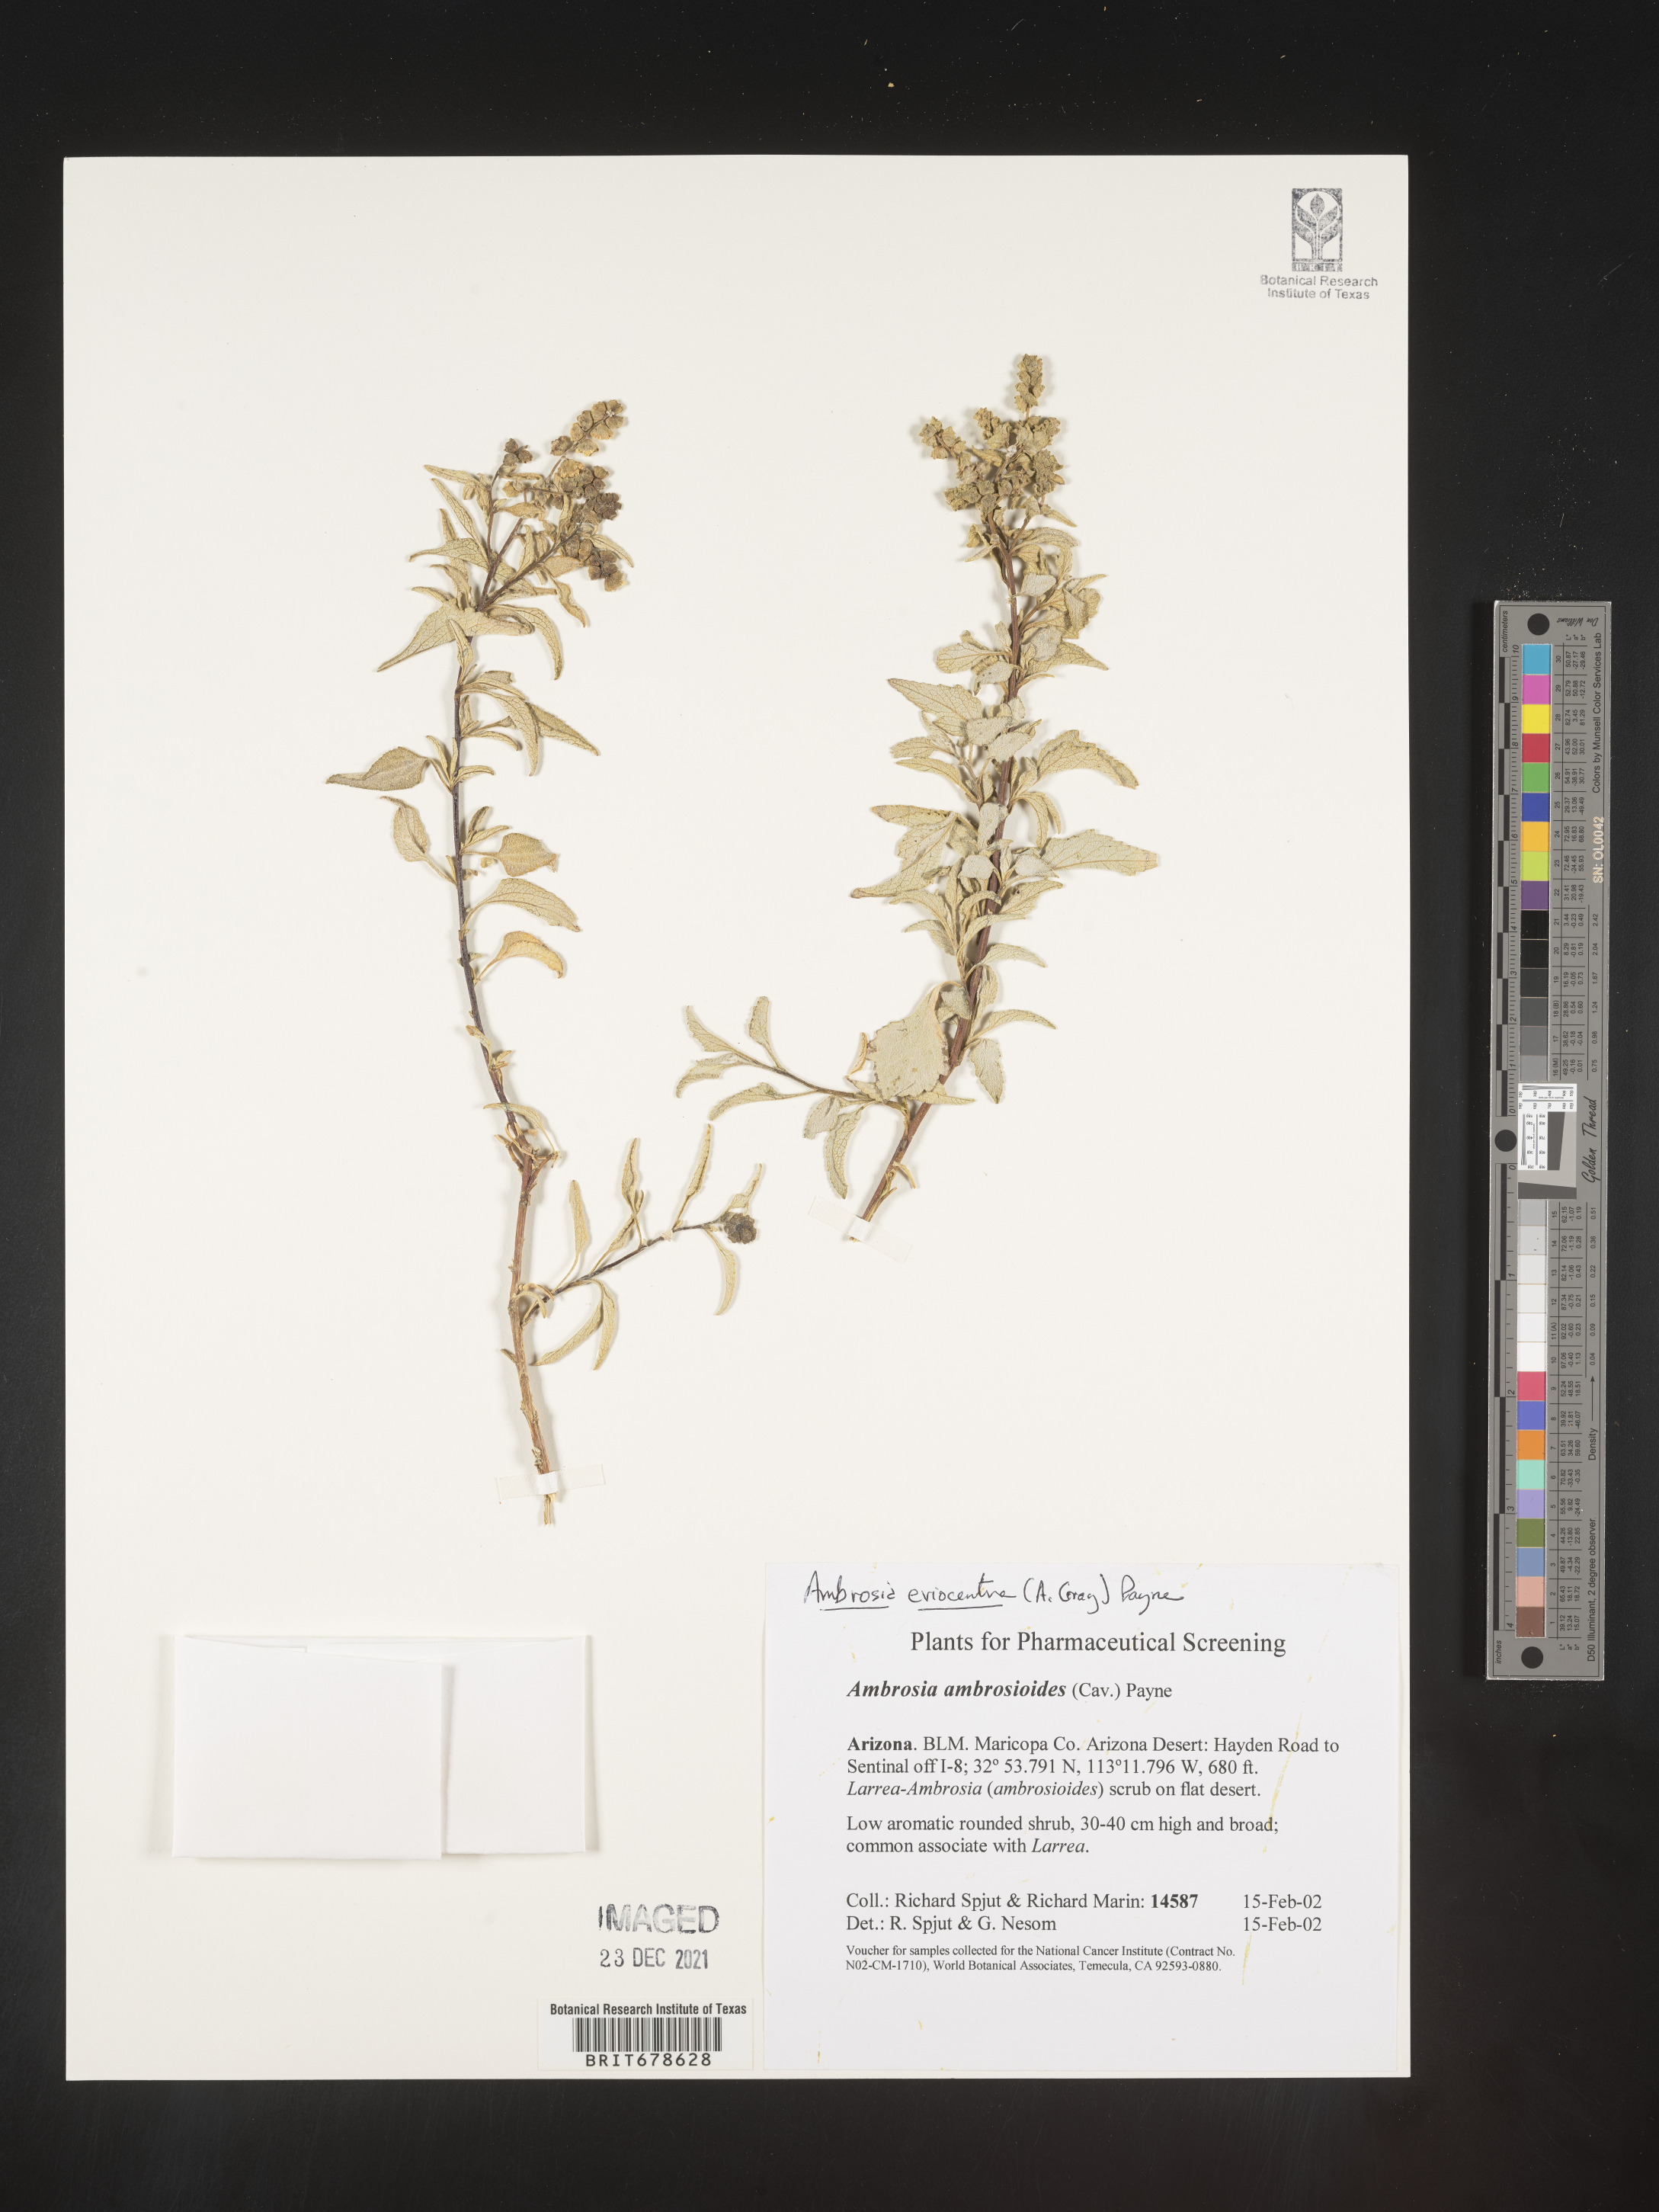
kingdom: Plantae
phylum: Tracheophyta
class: Magnoliopsida
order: Asterales
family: Asteraceae
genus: Ambrosia
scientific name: Ambrosia ambrosioides
